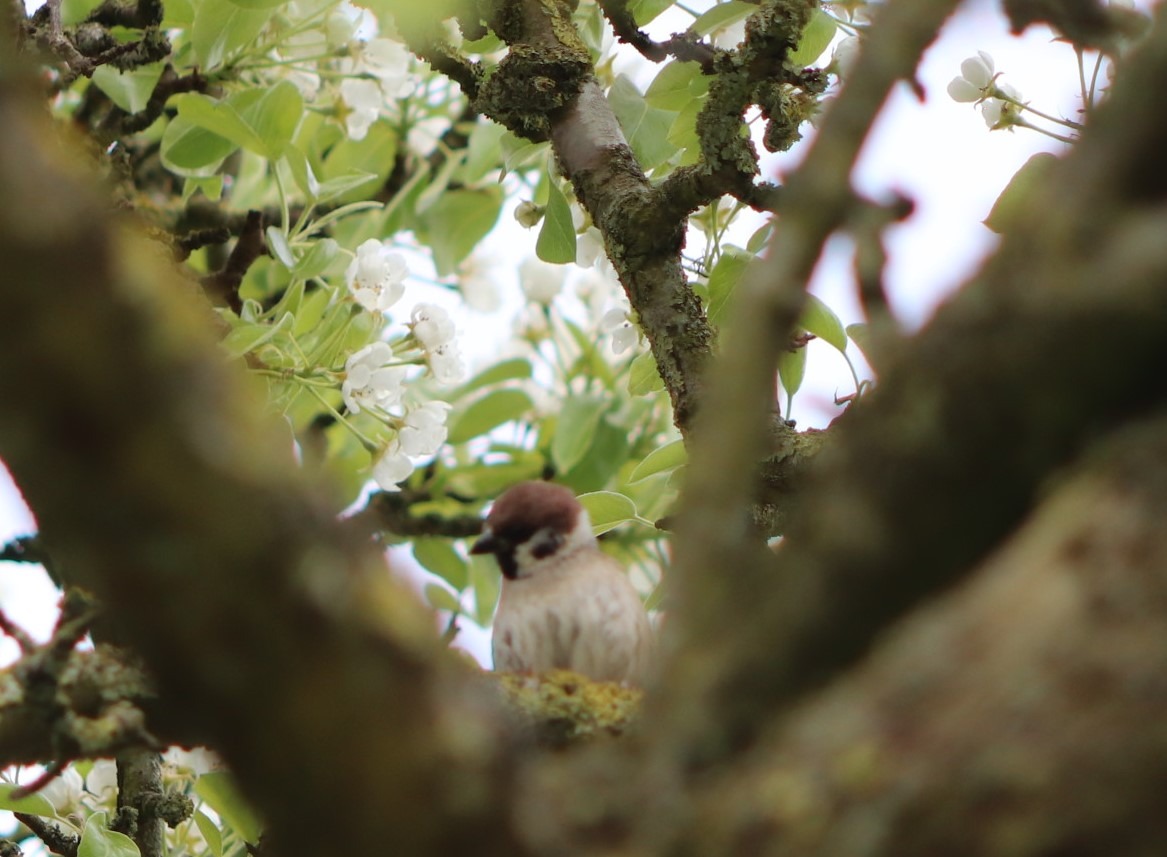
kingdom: Animalia
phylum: Chordata
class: Aves
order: Passeriformes
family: Passeridae
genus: Passer
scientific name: Passer montanus
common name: Skovspurv
